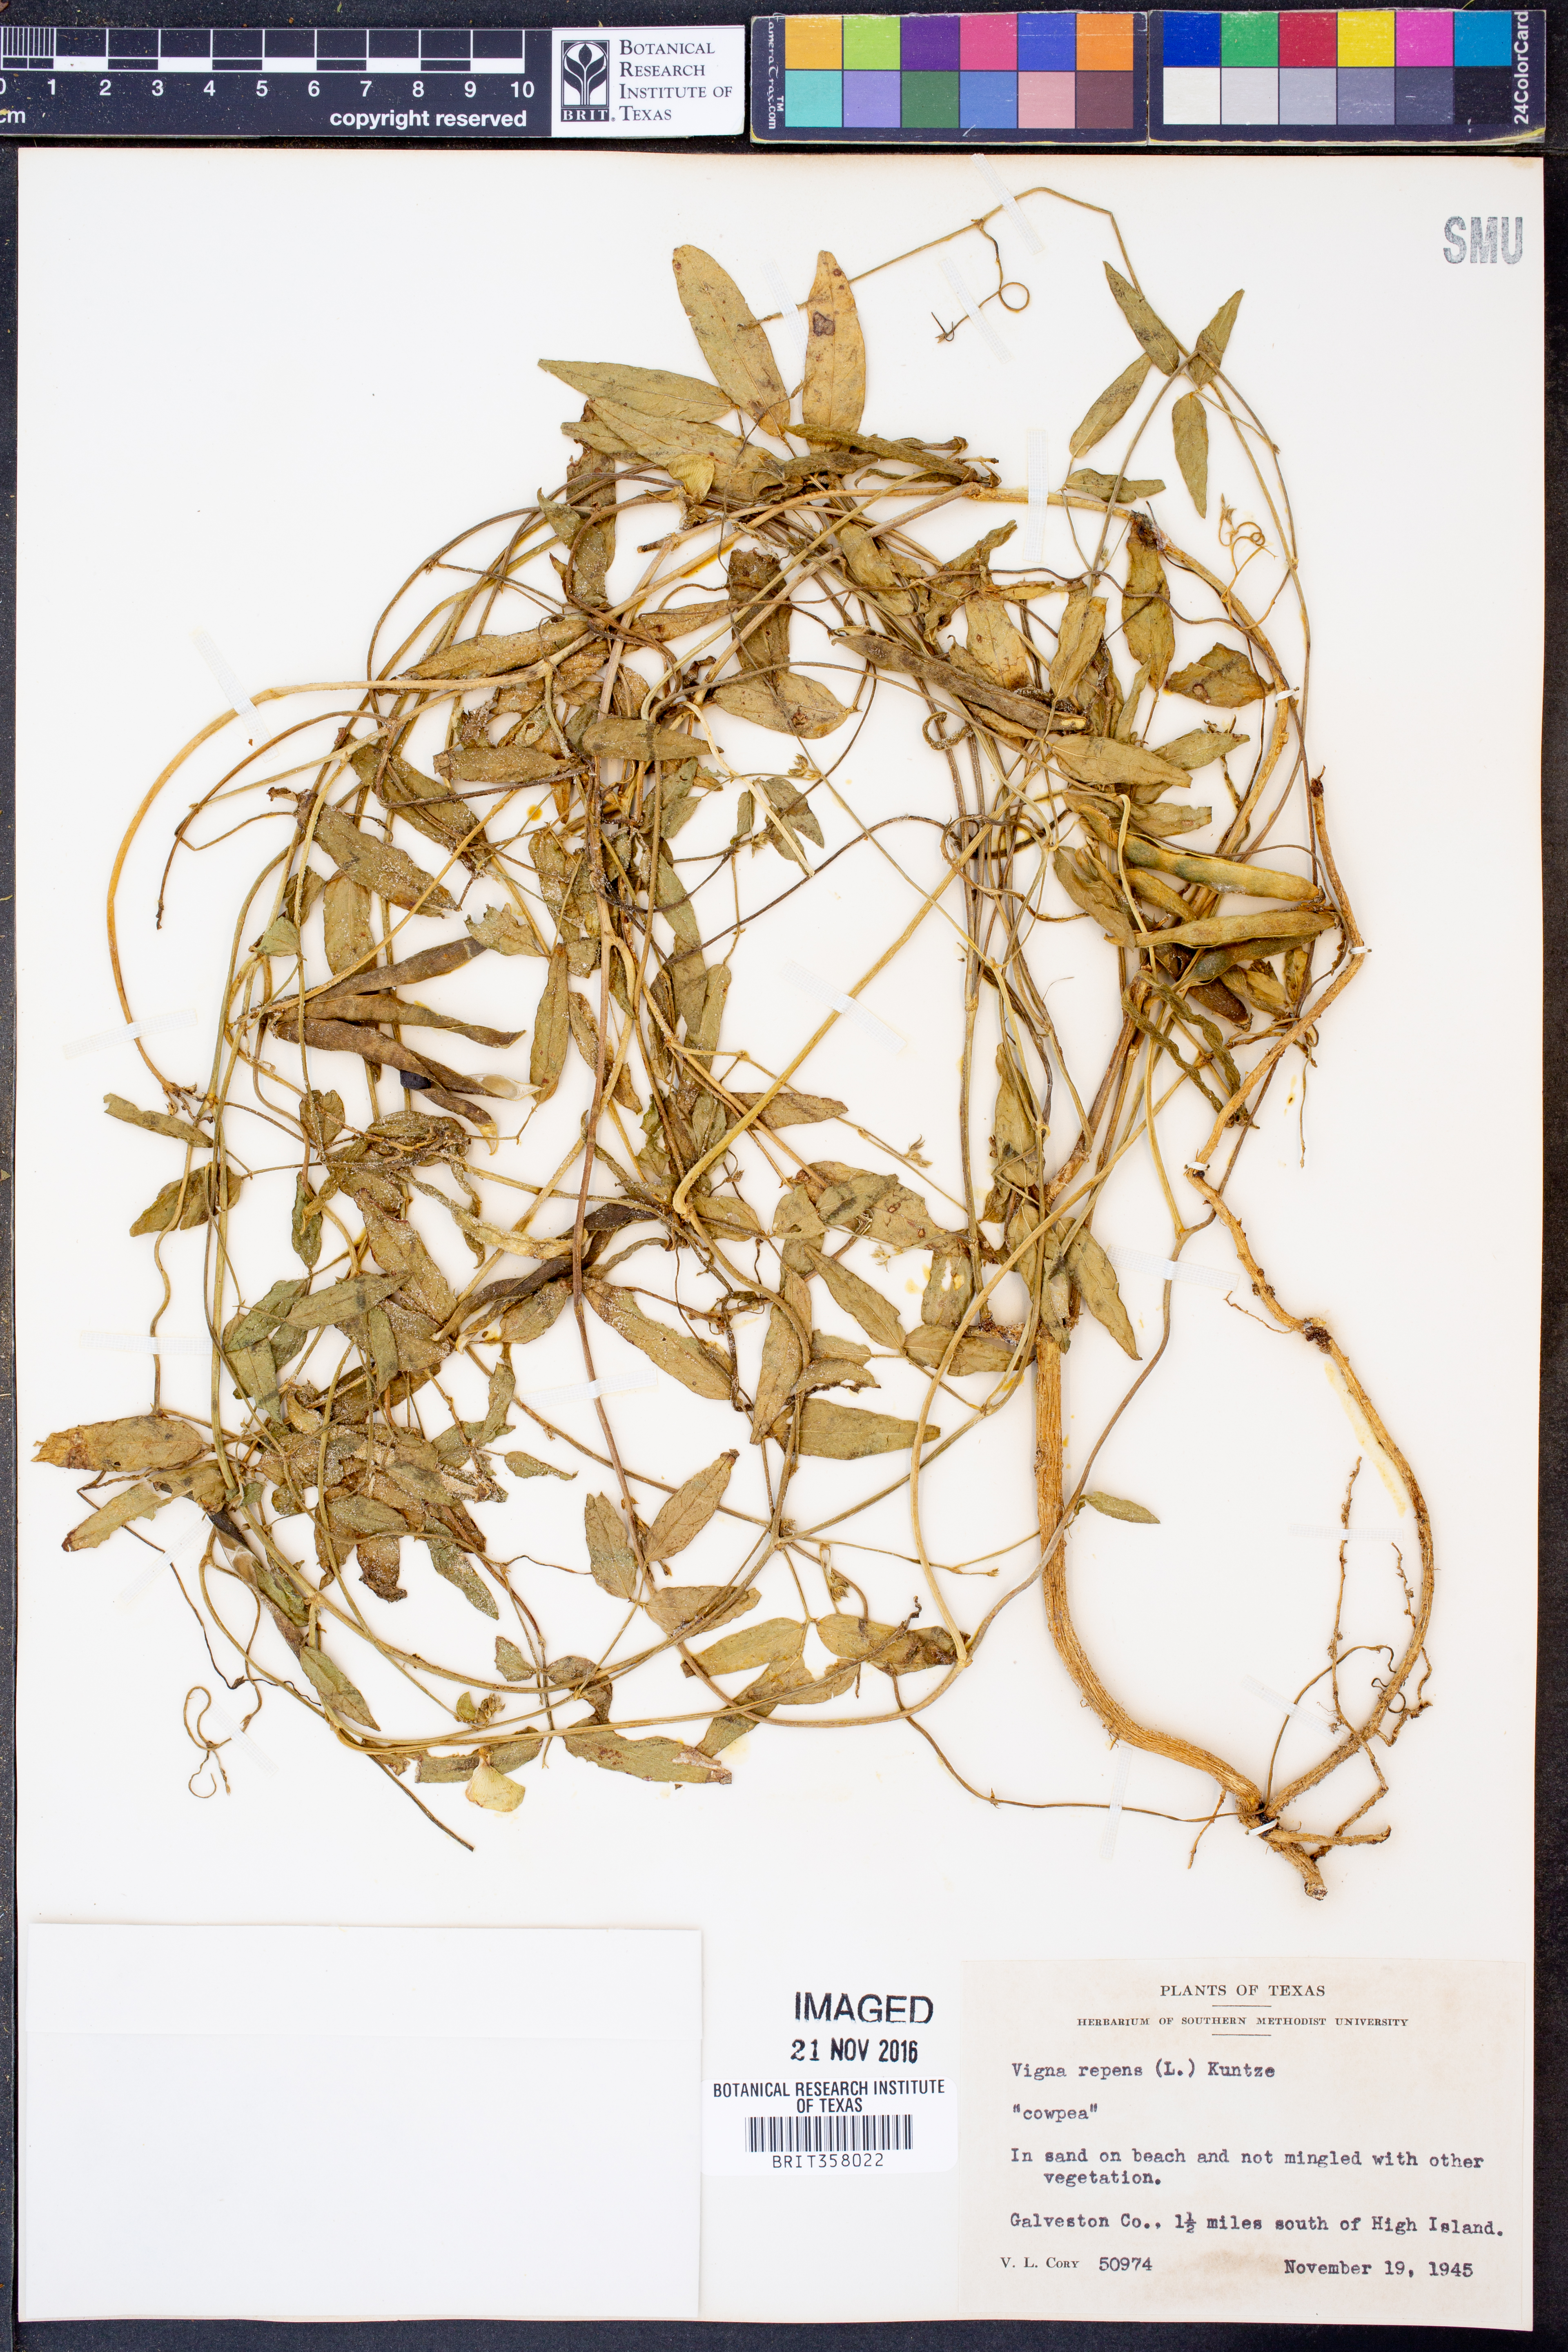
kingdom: Plantae
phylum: Tracheophyta
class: Magnoliopsida
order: Fabales
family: Fabaceae
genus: Vigna
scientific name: Vigna luteola
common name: Hairypod cowpea
